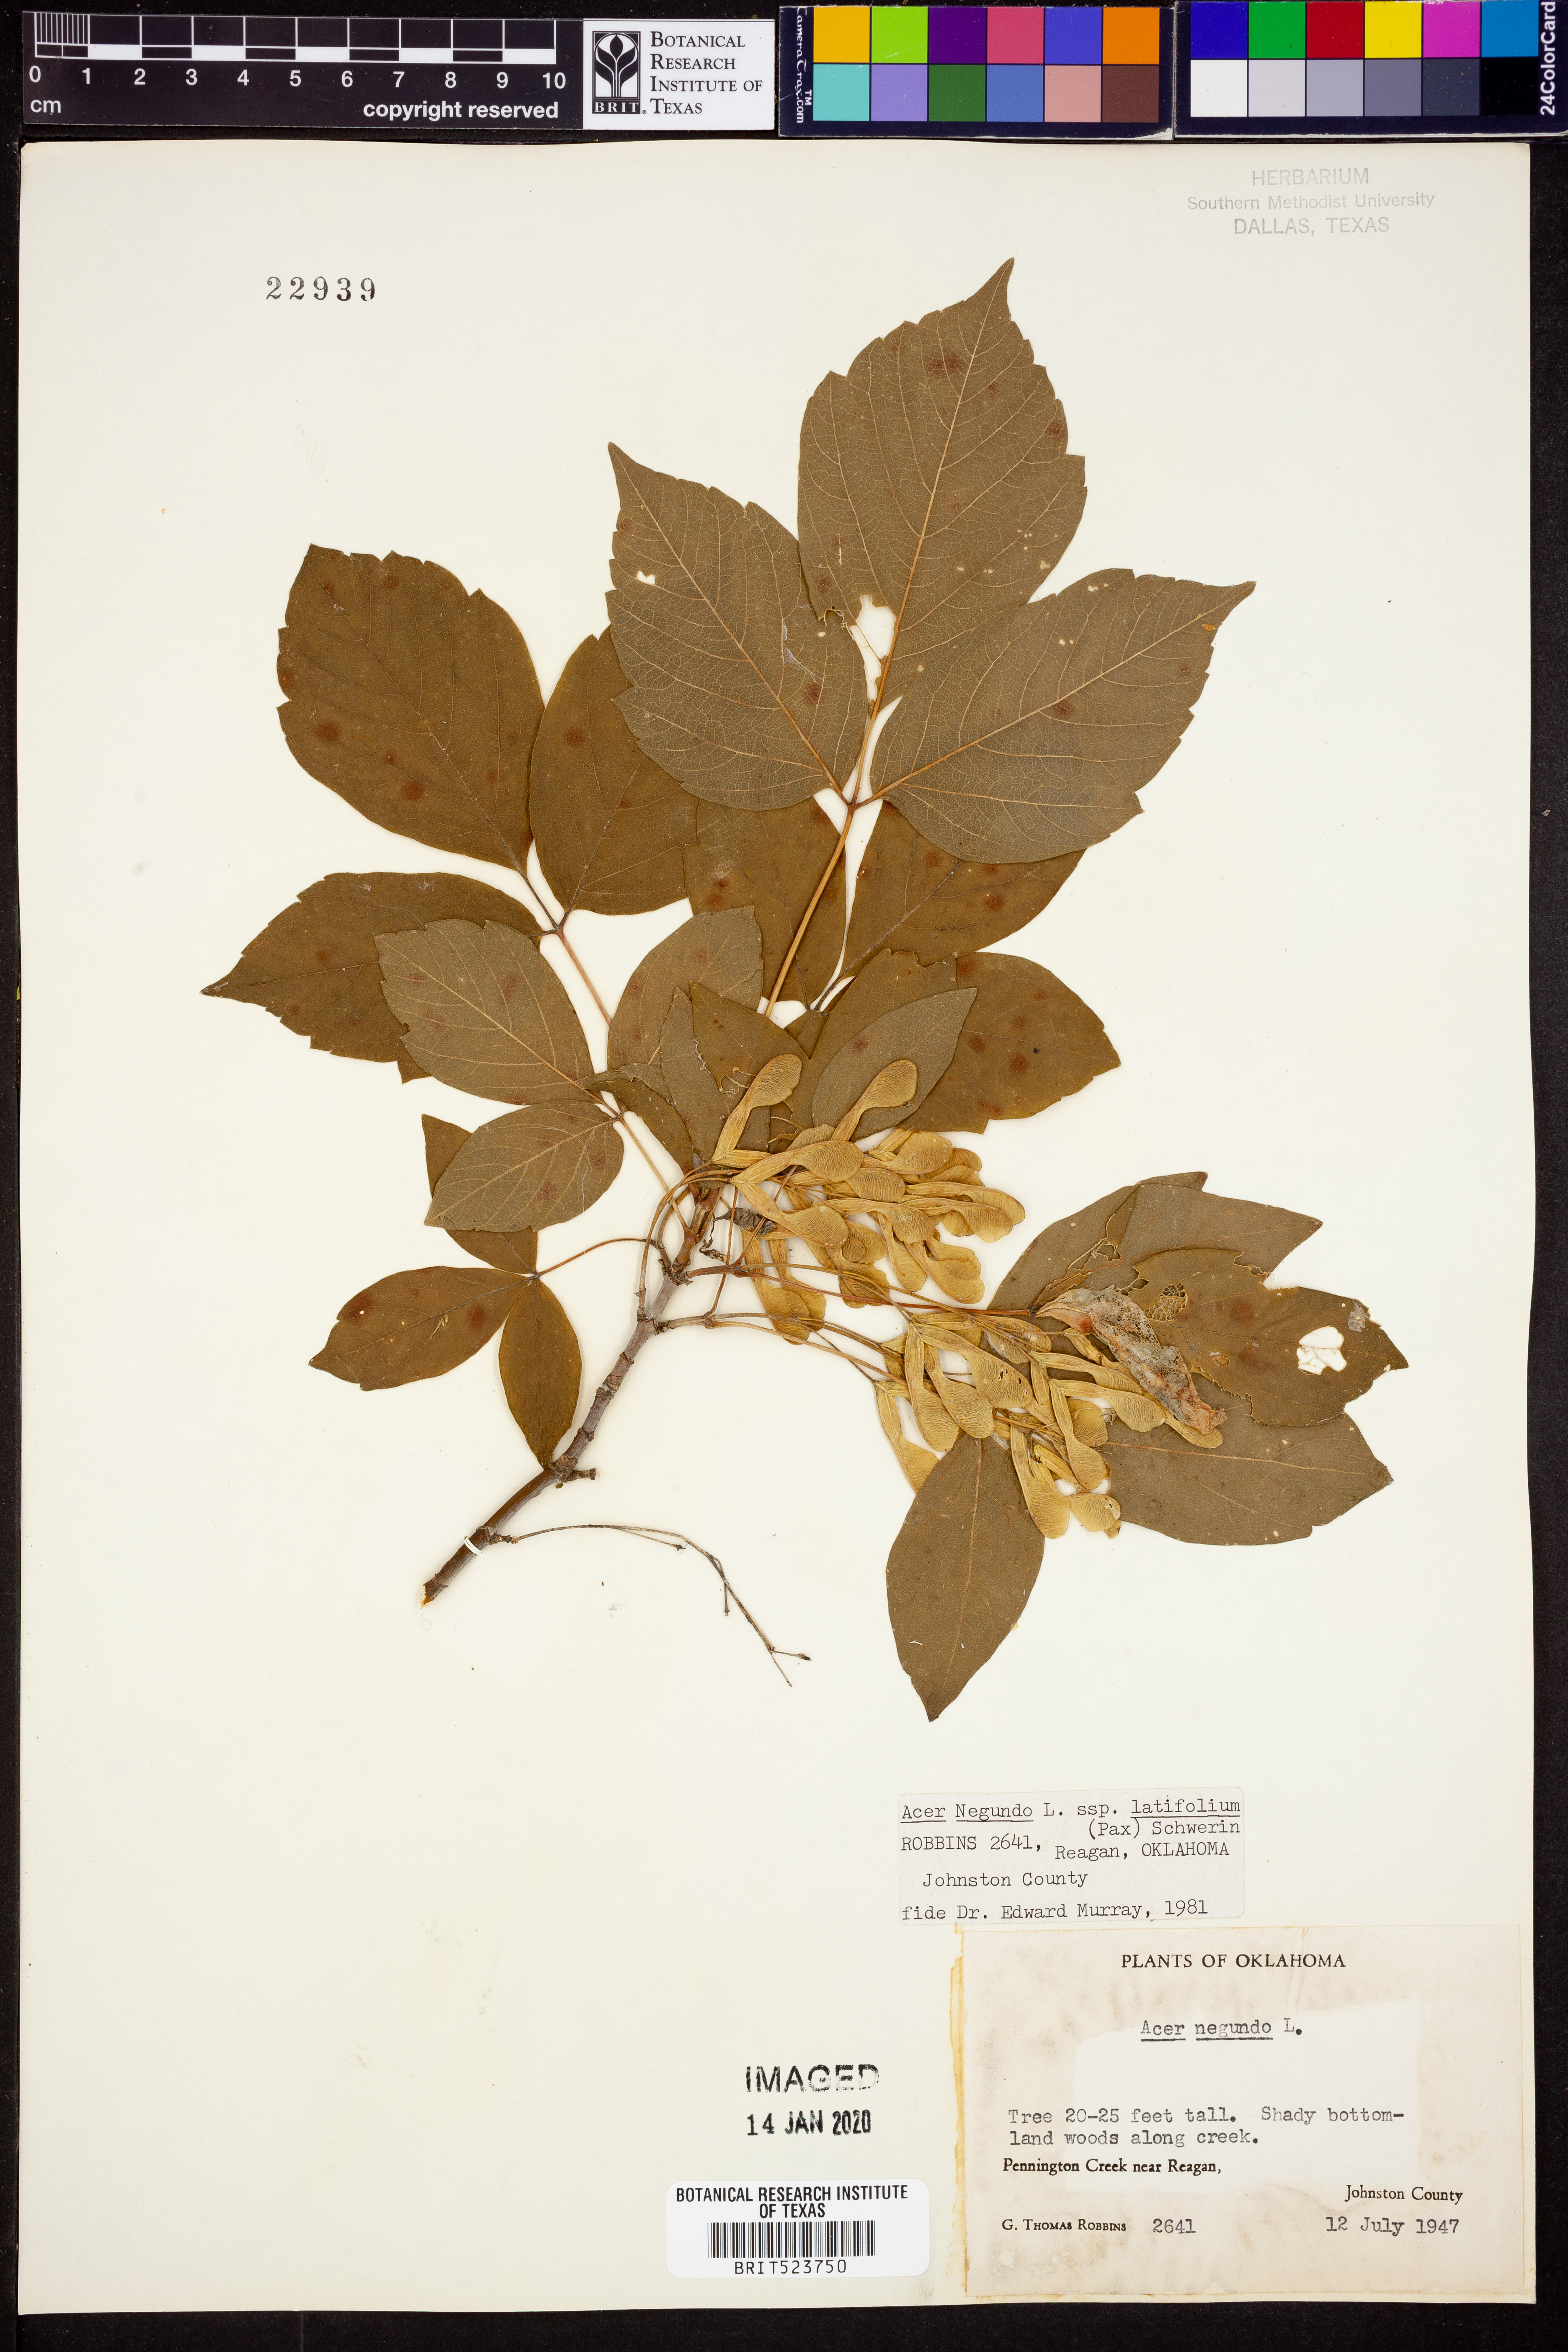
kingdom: Plantae
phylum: Tracheophyta
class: Magnoliopsida
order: Sapindales
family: Sapindaceae
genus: Acer
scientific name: Acer negundo
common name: Ashleaf maple
